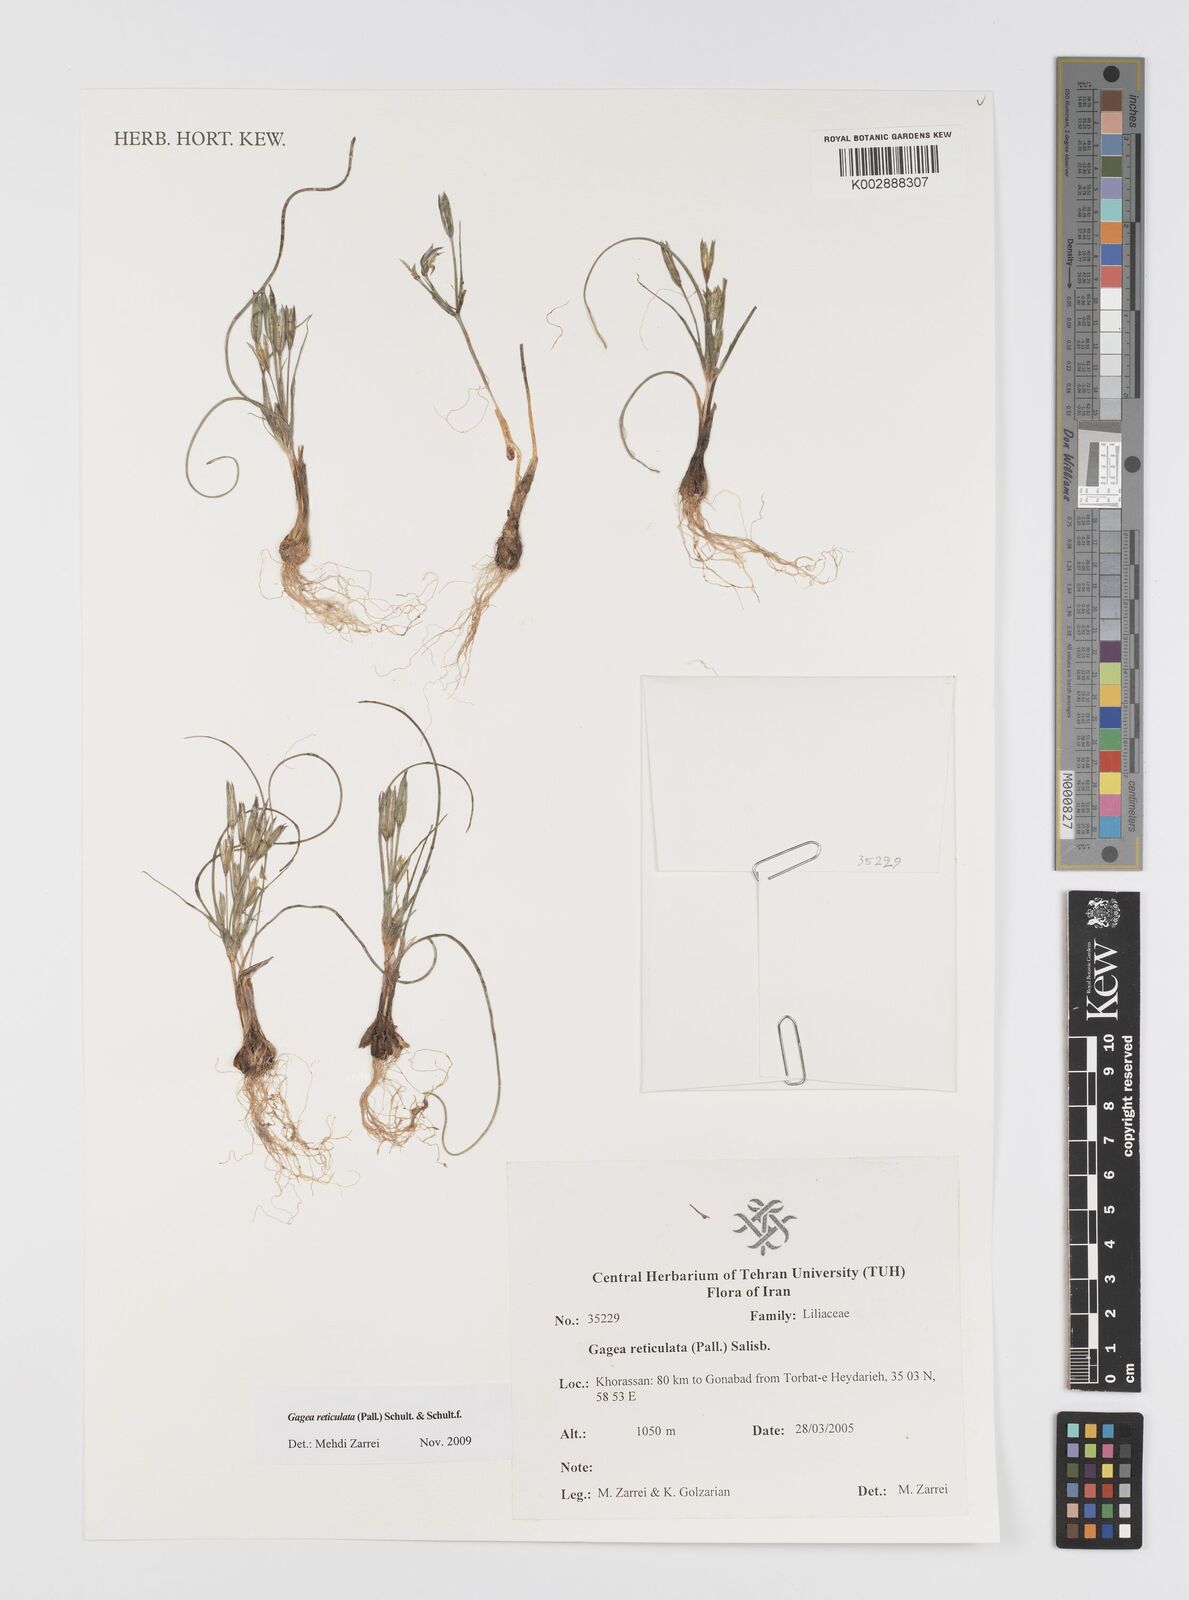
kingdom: Plantae
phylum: Tracheophyta
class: Liliopsida
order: Liliales
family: Liliaceae
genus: Gagea
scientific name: Gagea reticulata
